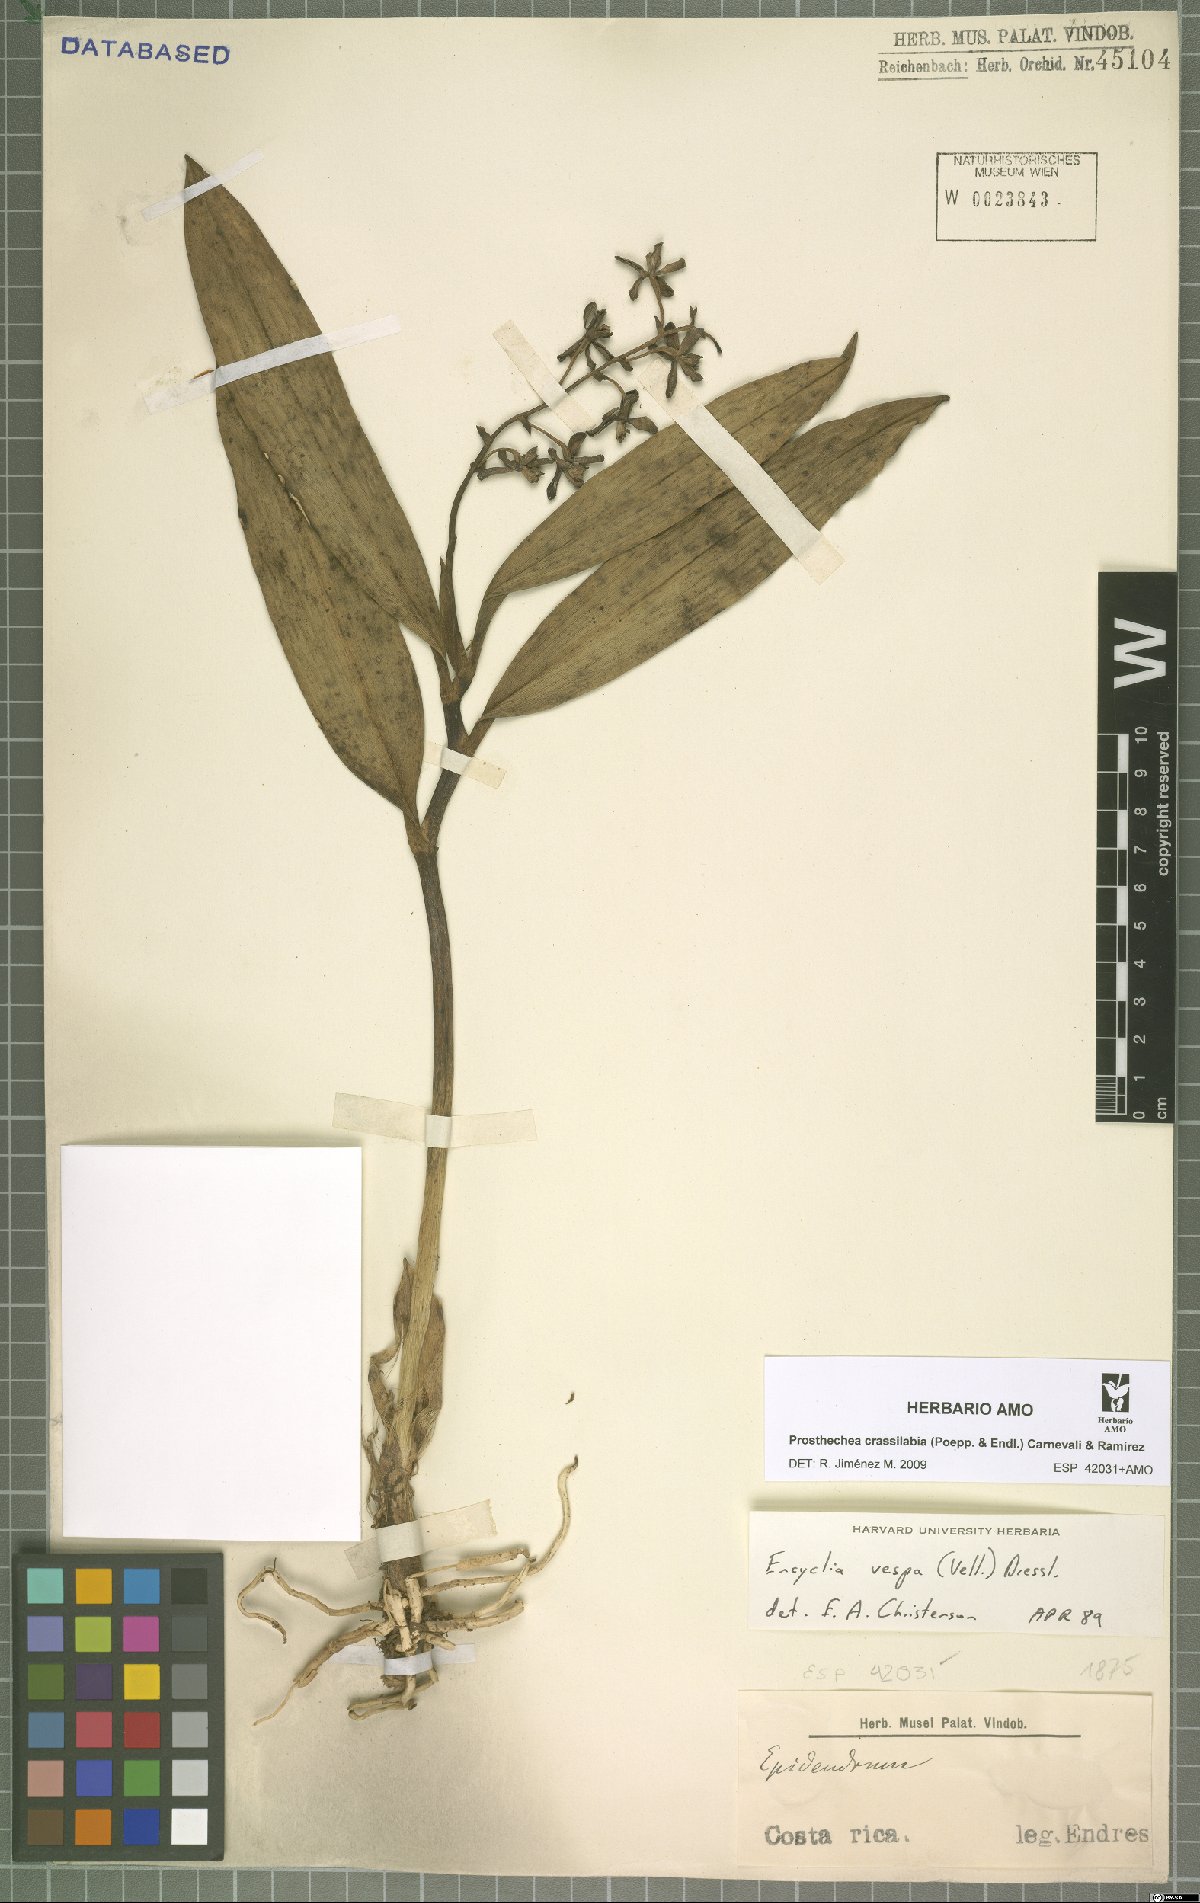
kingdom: Plantae
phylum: Tracheophyta
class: Liliopsida
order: Asparagales
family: Orchidaceae
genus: Prosthechea
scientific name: Prosthechea crassilabia
